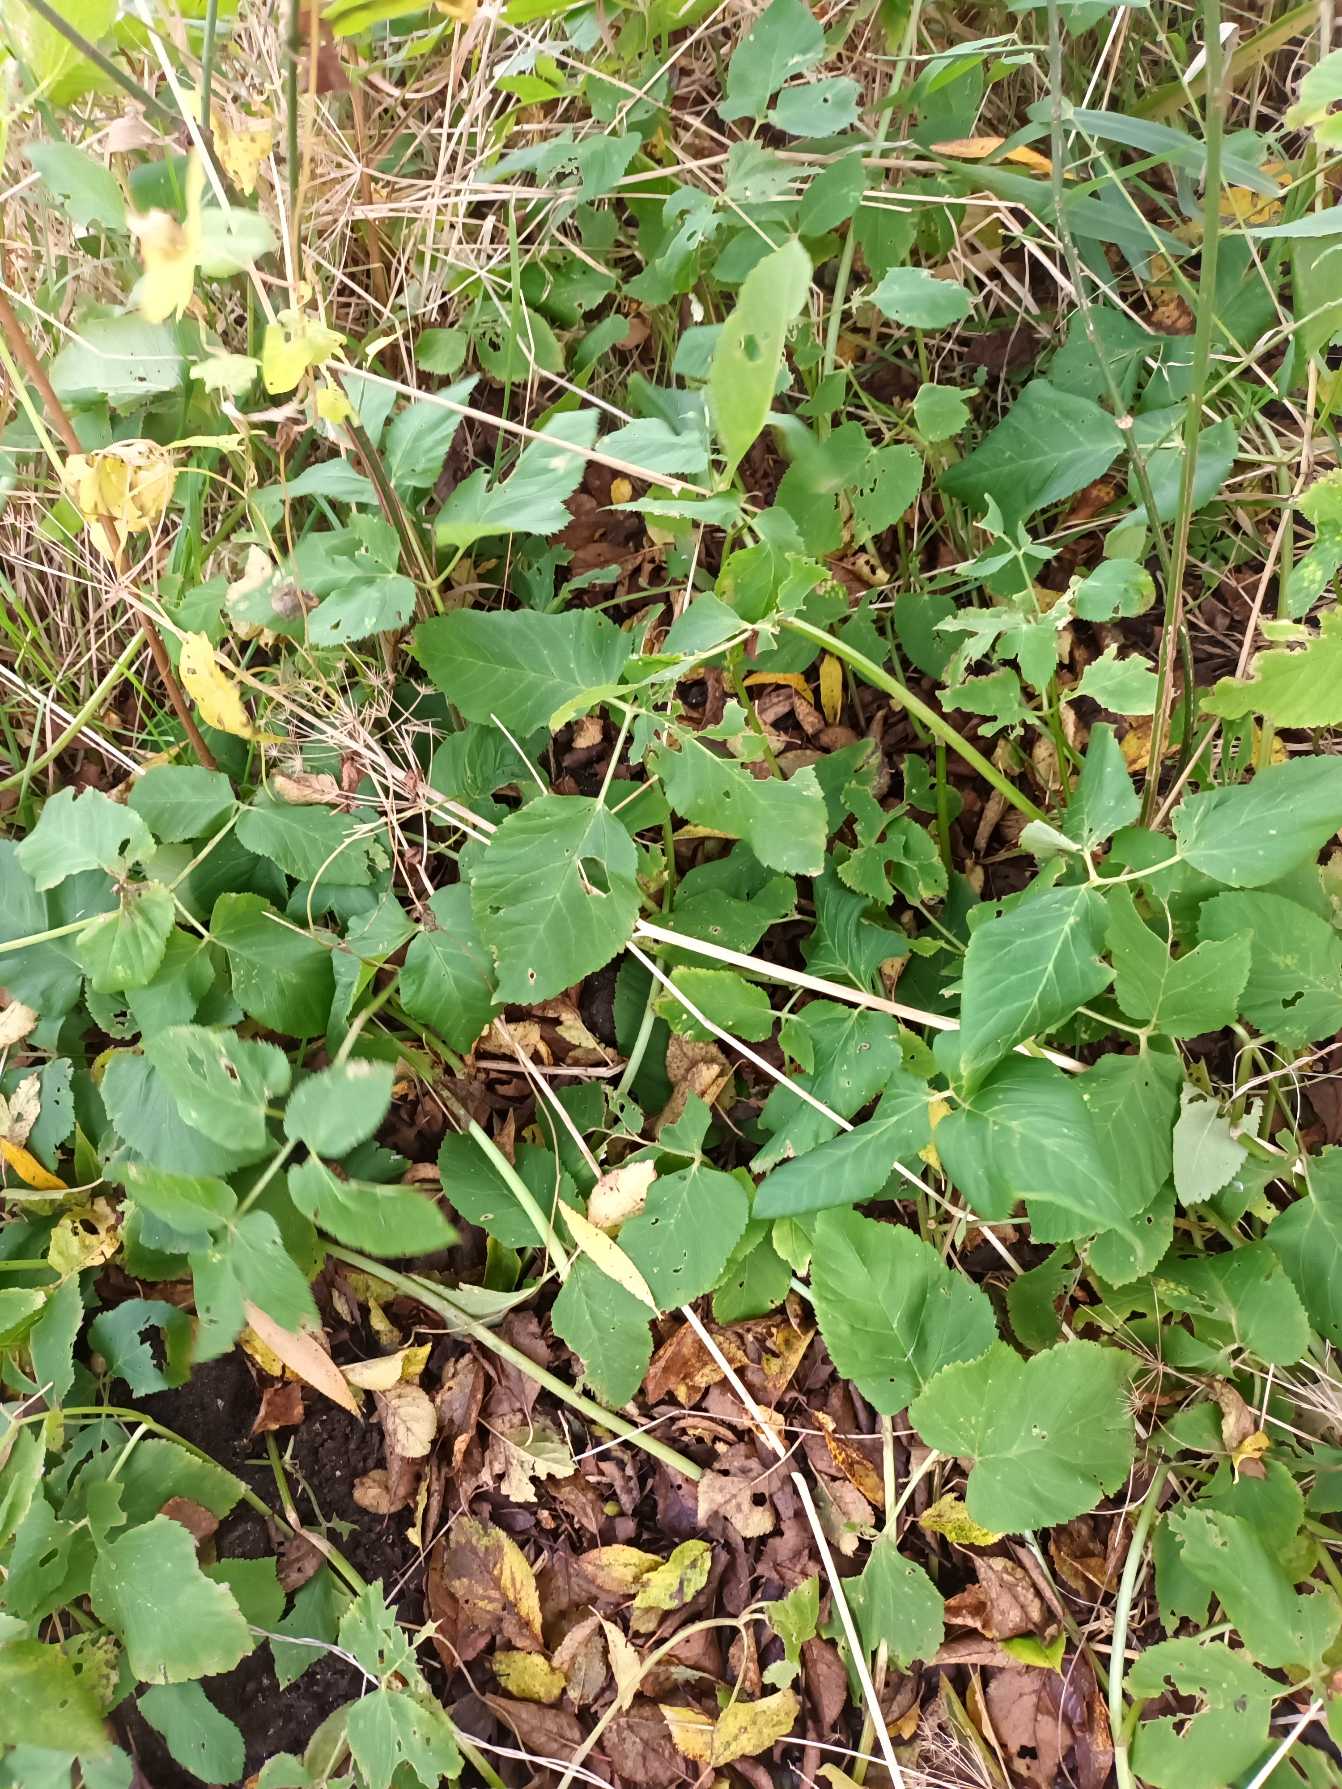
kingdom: Plantae
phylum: Tracheophyta
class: Magnoliopsida
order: Apiales
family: Apiaceae
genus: Aegopodium
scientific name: Aegopodium podagraria
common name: Skvalderkål
